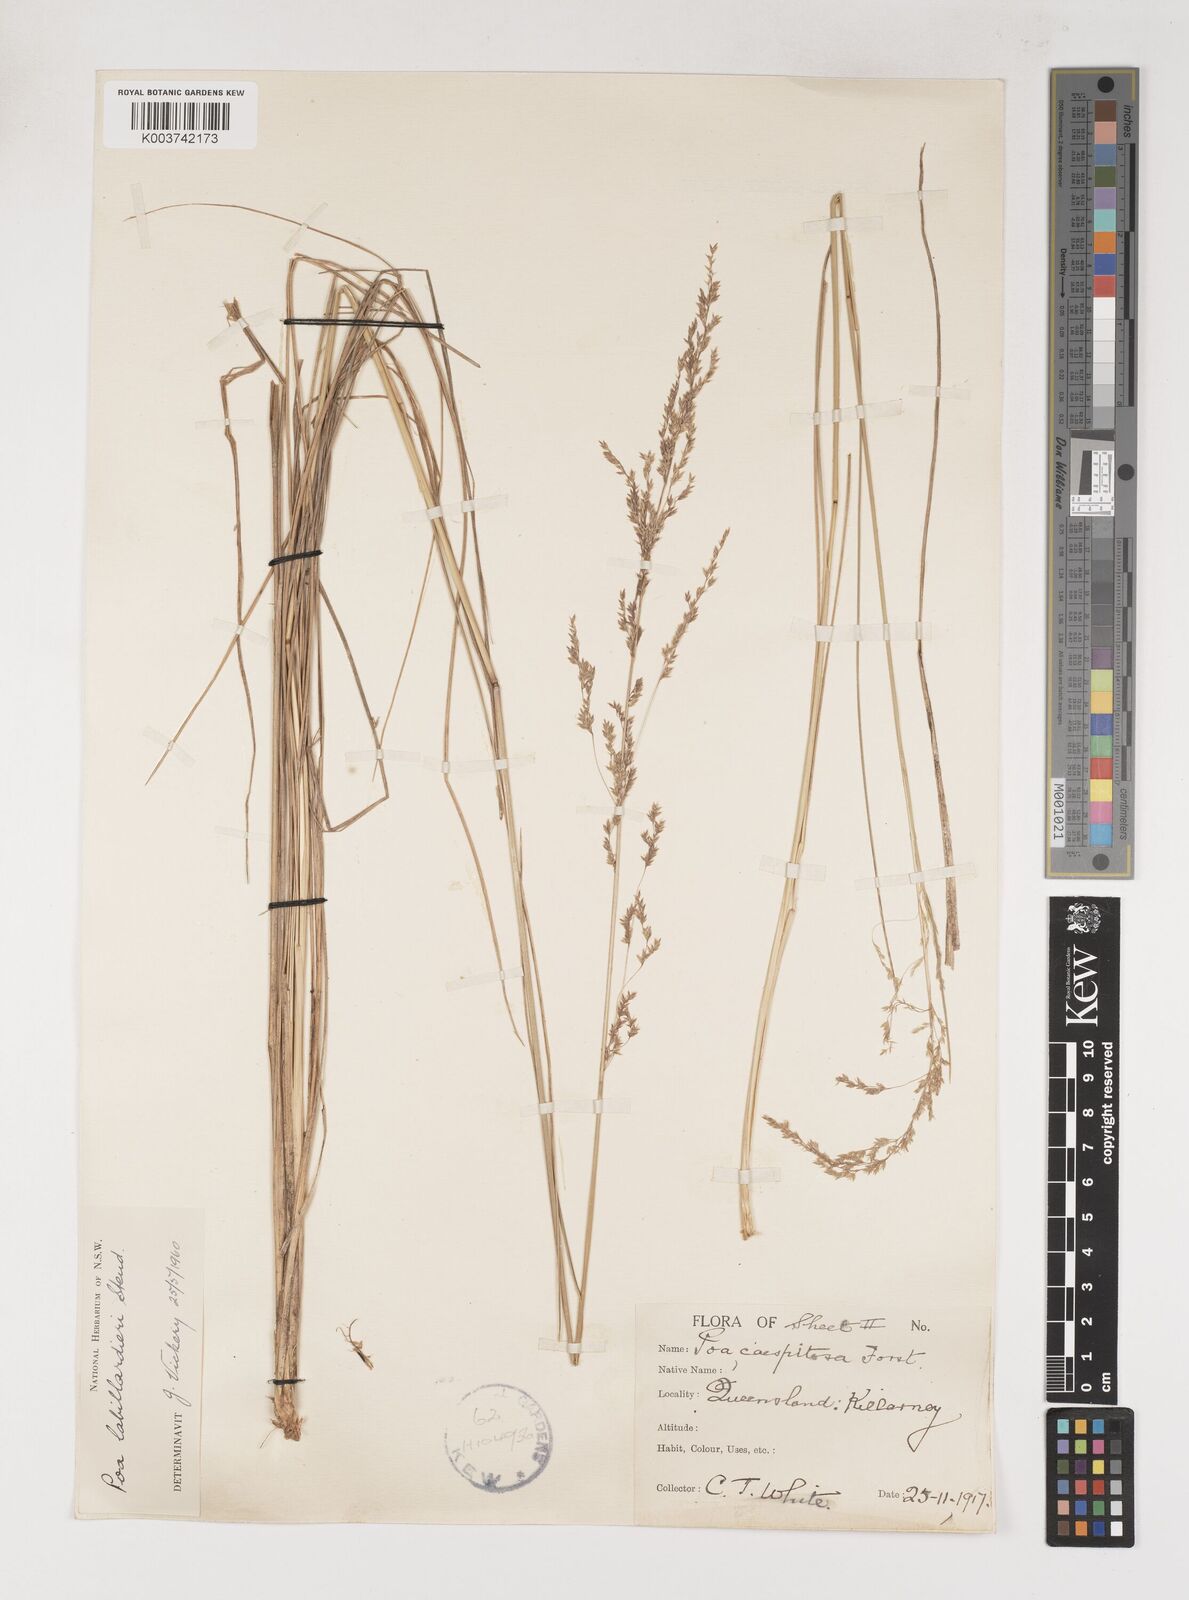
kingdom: Plantae
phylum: Tracheophyta
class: Liliopsida
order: Poales
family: Poaceae
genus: Poa
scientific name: Poa labillardierei
